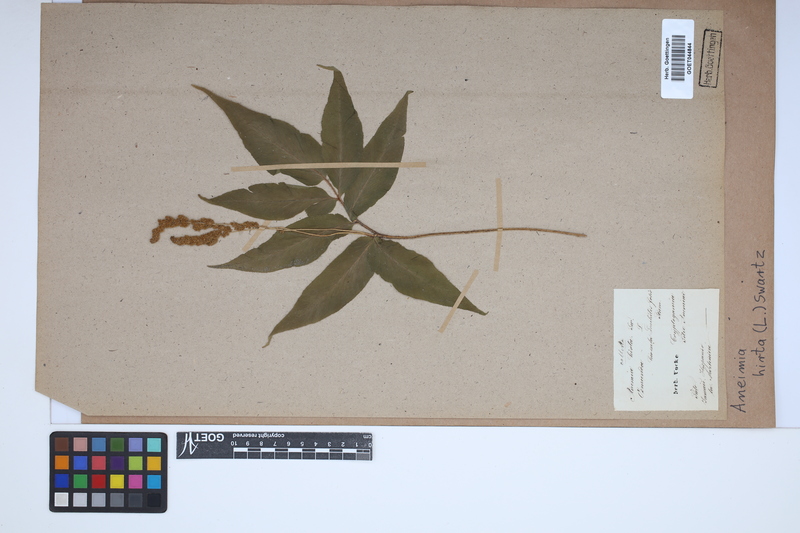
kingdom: Plantae
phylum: Tracheophyta
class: Polypodiopsida
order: Schizaeales
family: Anemiaceae
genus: Anemia
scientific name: Anemia hirta
